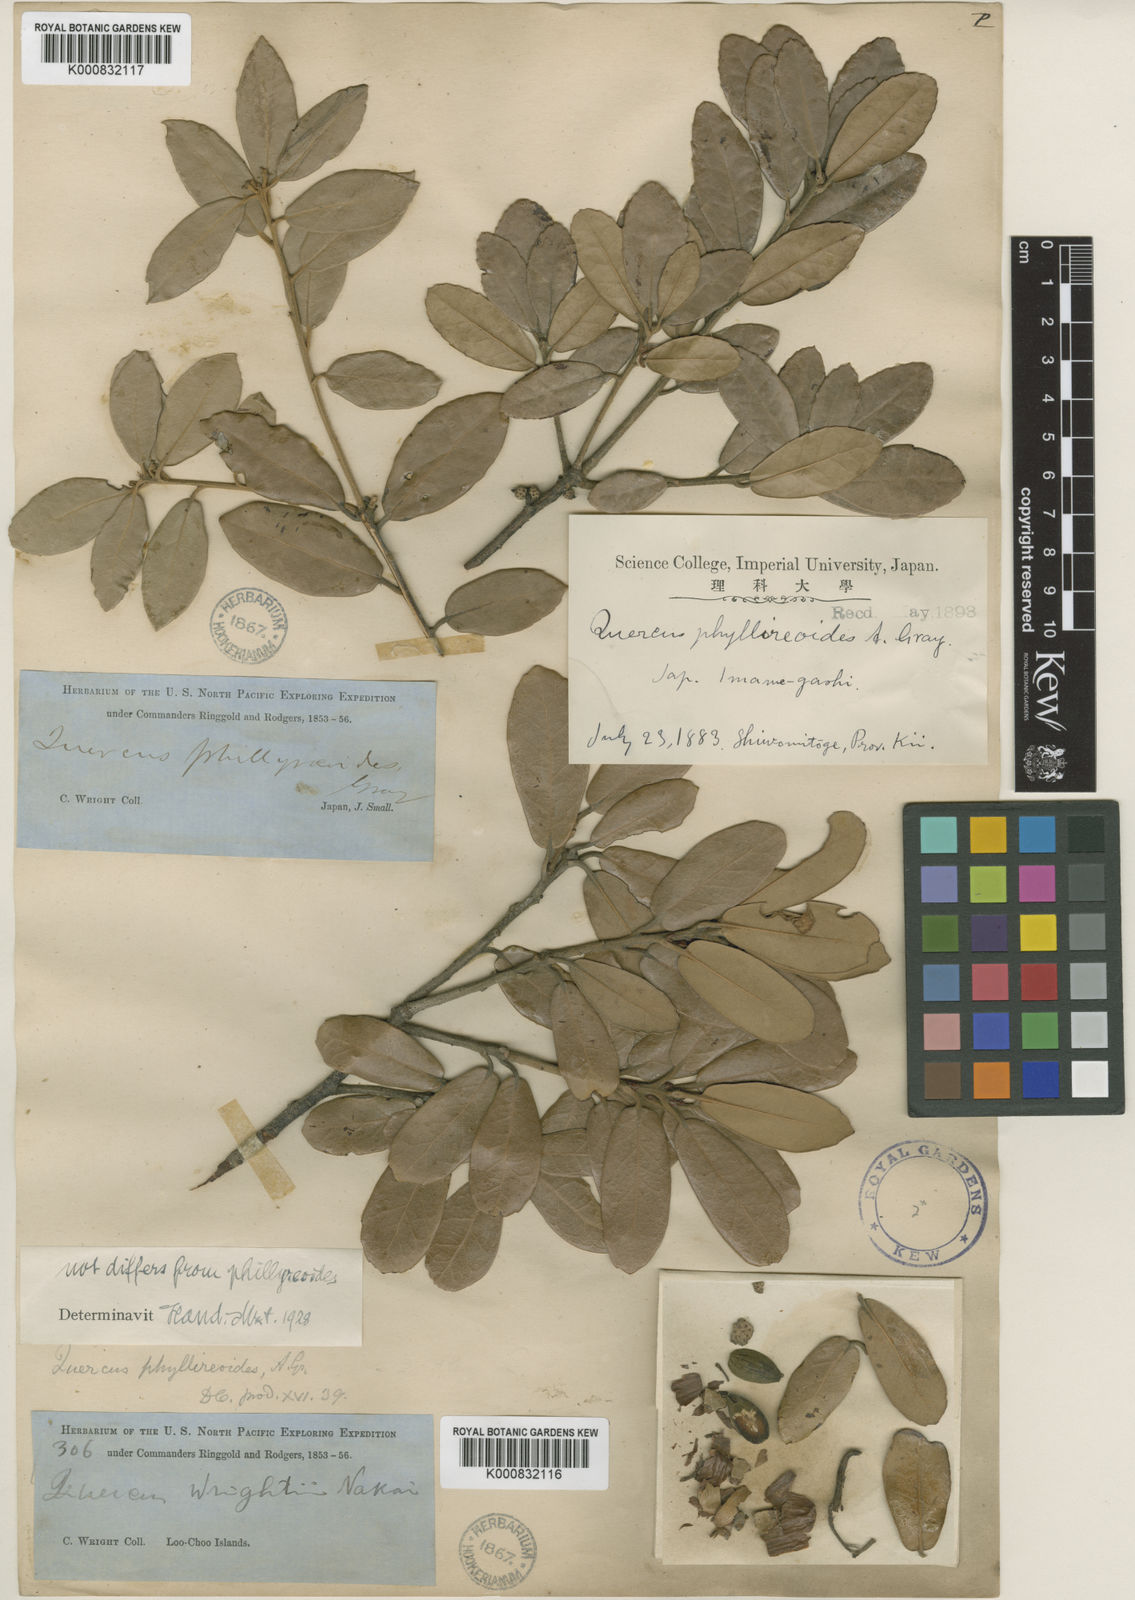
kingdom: Plantae
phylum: Tracheophyta
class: Magnoliopsida
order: Fagales
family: Fagaceae
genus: Quercus
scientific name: Quercus phillyreoides
